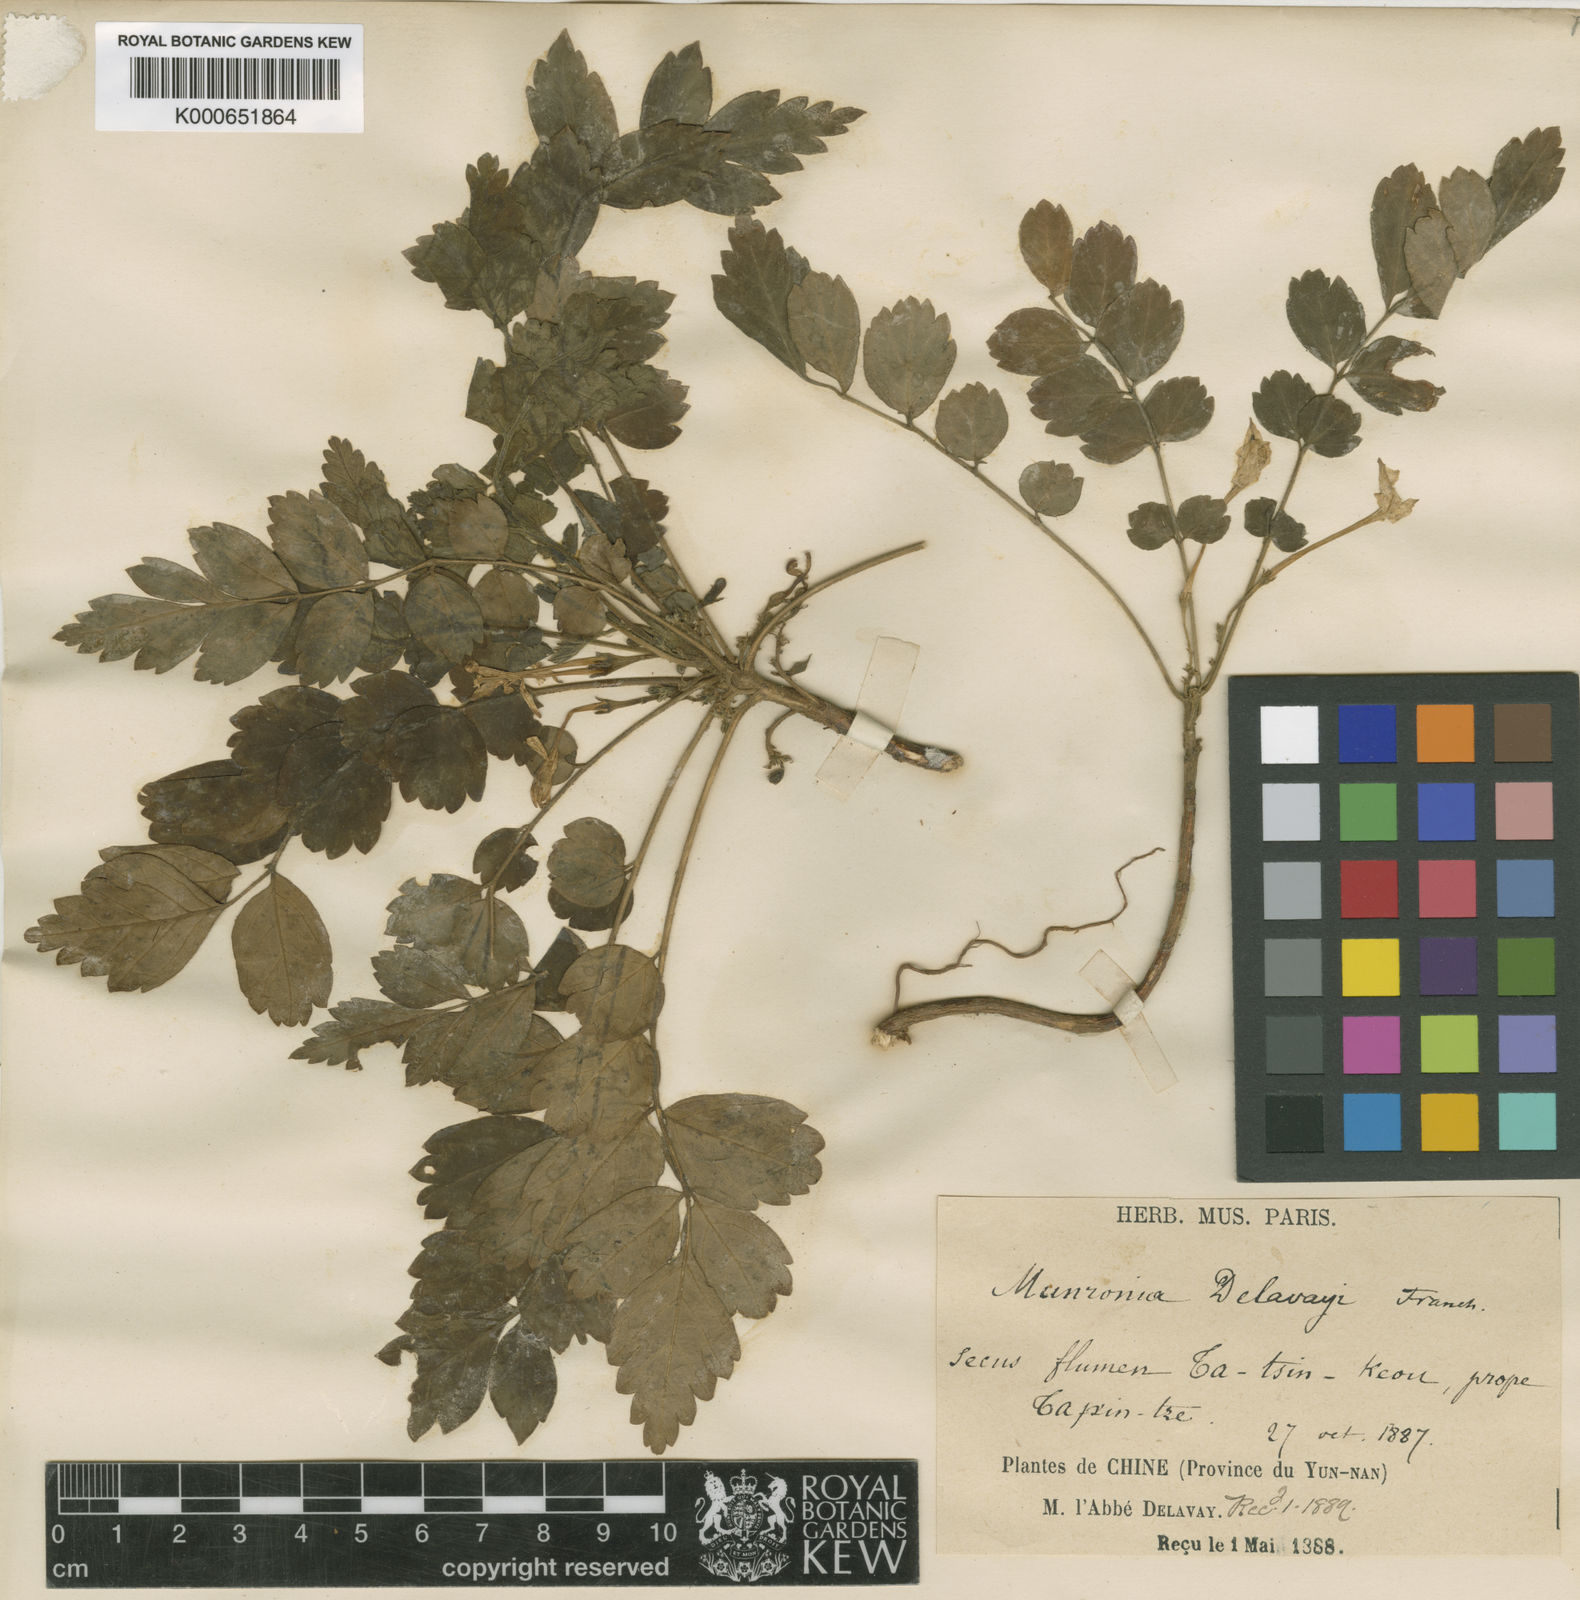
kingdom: Plantae
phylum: Tracheophyta
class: Magnoliopsida
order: Sapindales
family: Meliaceae
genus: Munronia
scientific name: Munronia pinnata
